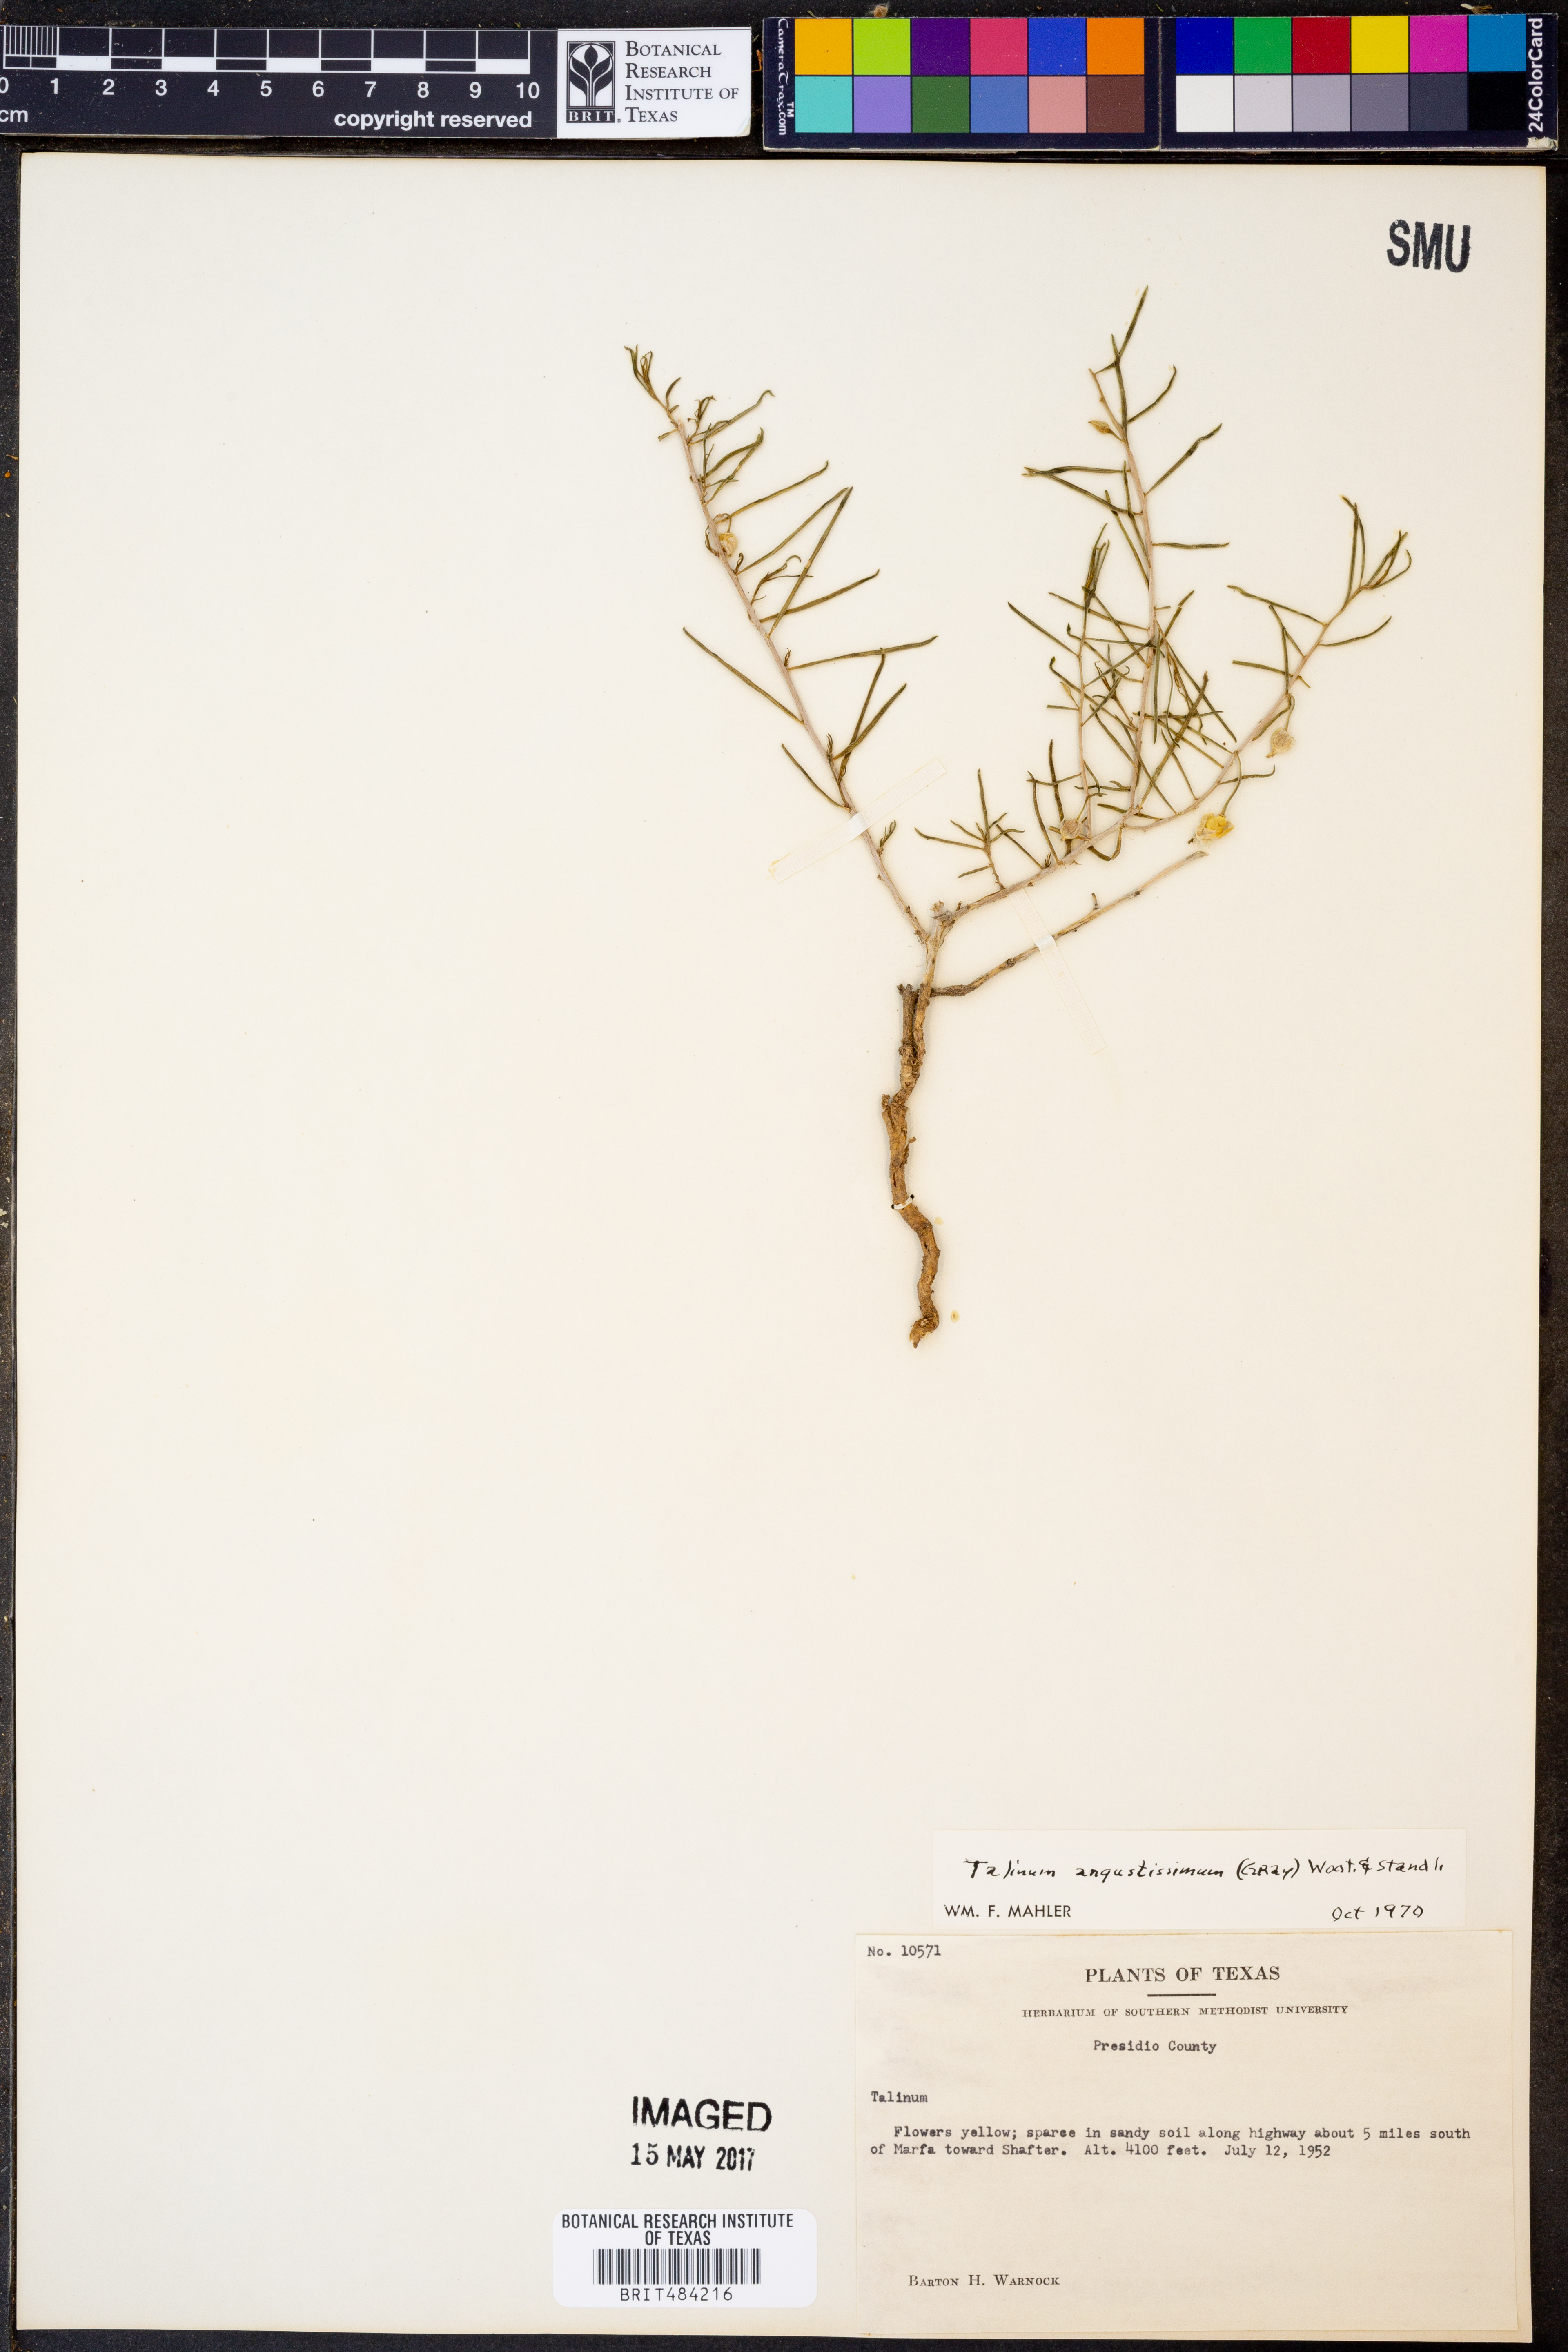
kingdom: Plantae
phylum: Tracheophyta
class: Magnoliopsida
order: Caryophyllales
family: Montiaceae
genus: Phemeranthus
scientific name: Phemeranthus aurantiacus
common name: Orange fameflower
